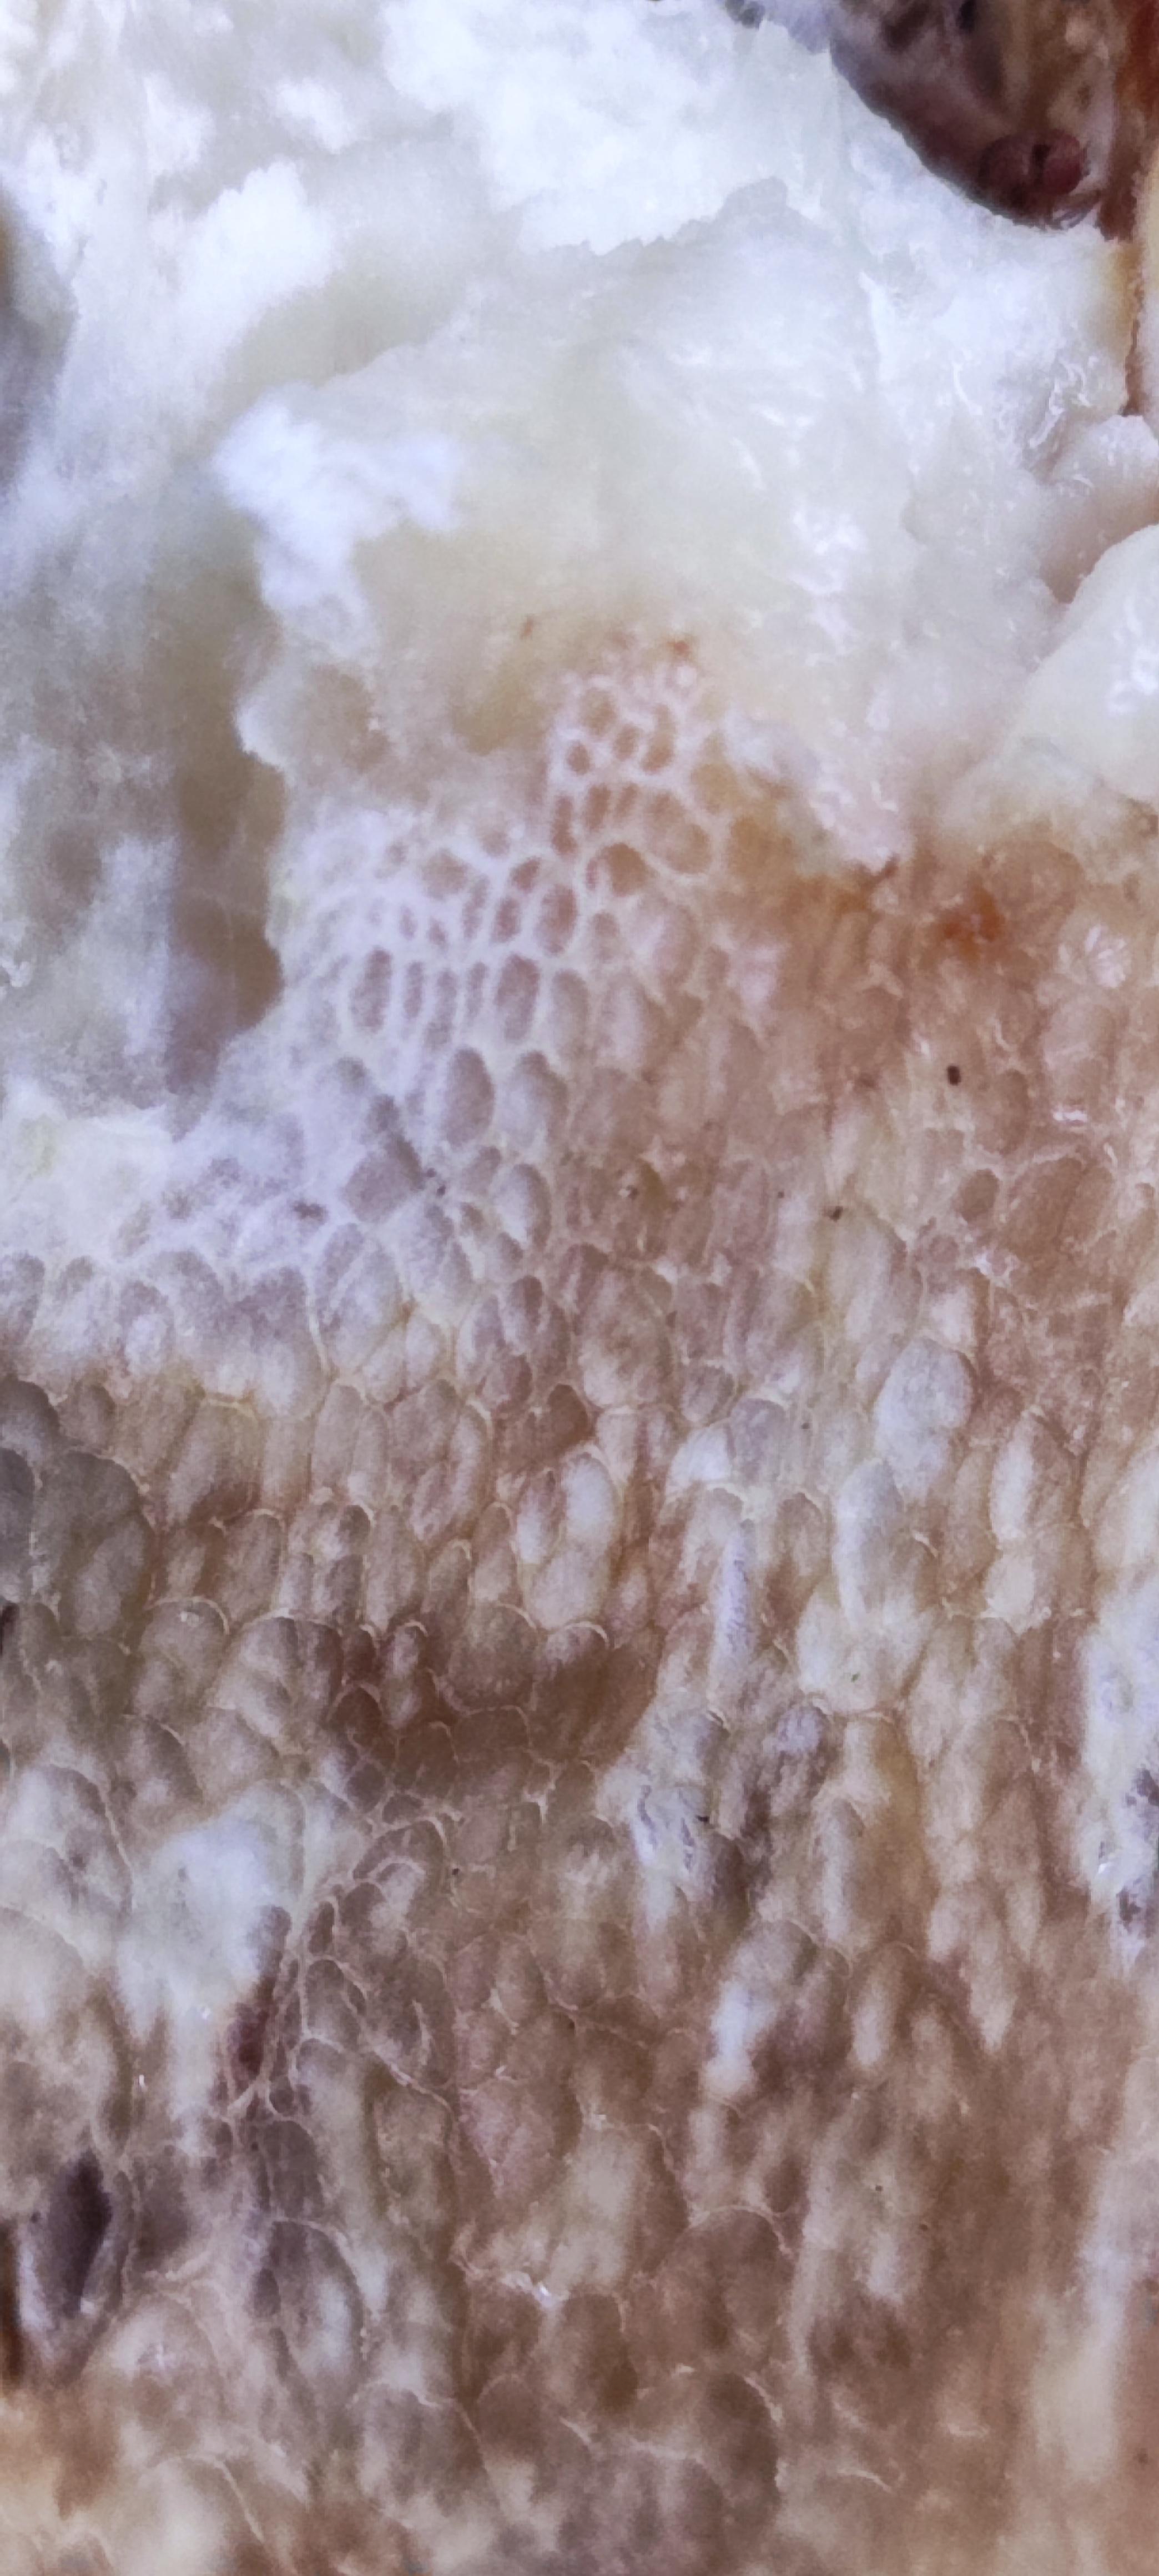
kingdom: Fungi
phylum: Basidiomycota
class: Agaricomycetes
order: Boletales
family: Boletaceae
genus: Boletus
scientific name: Boletus edulis
